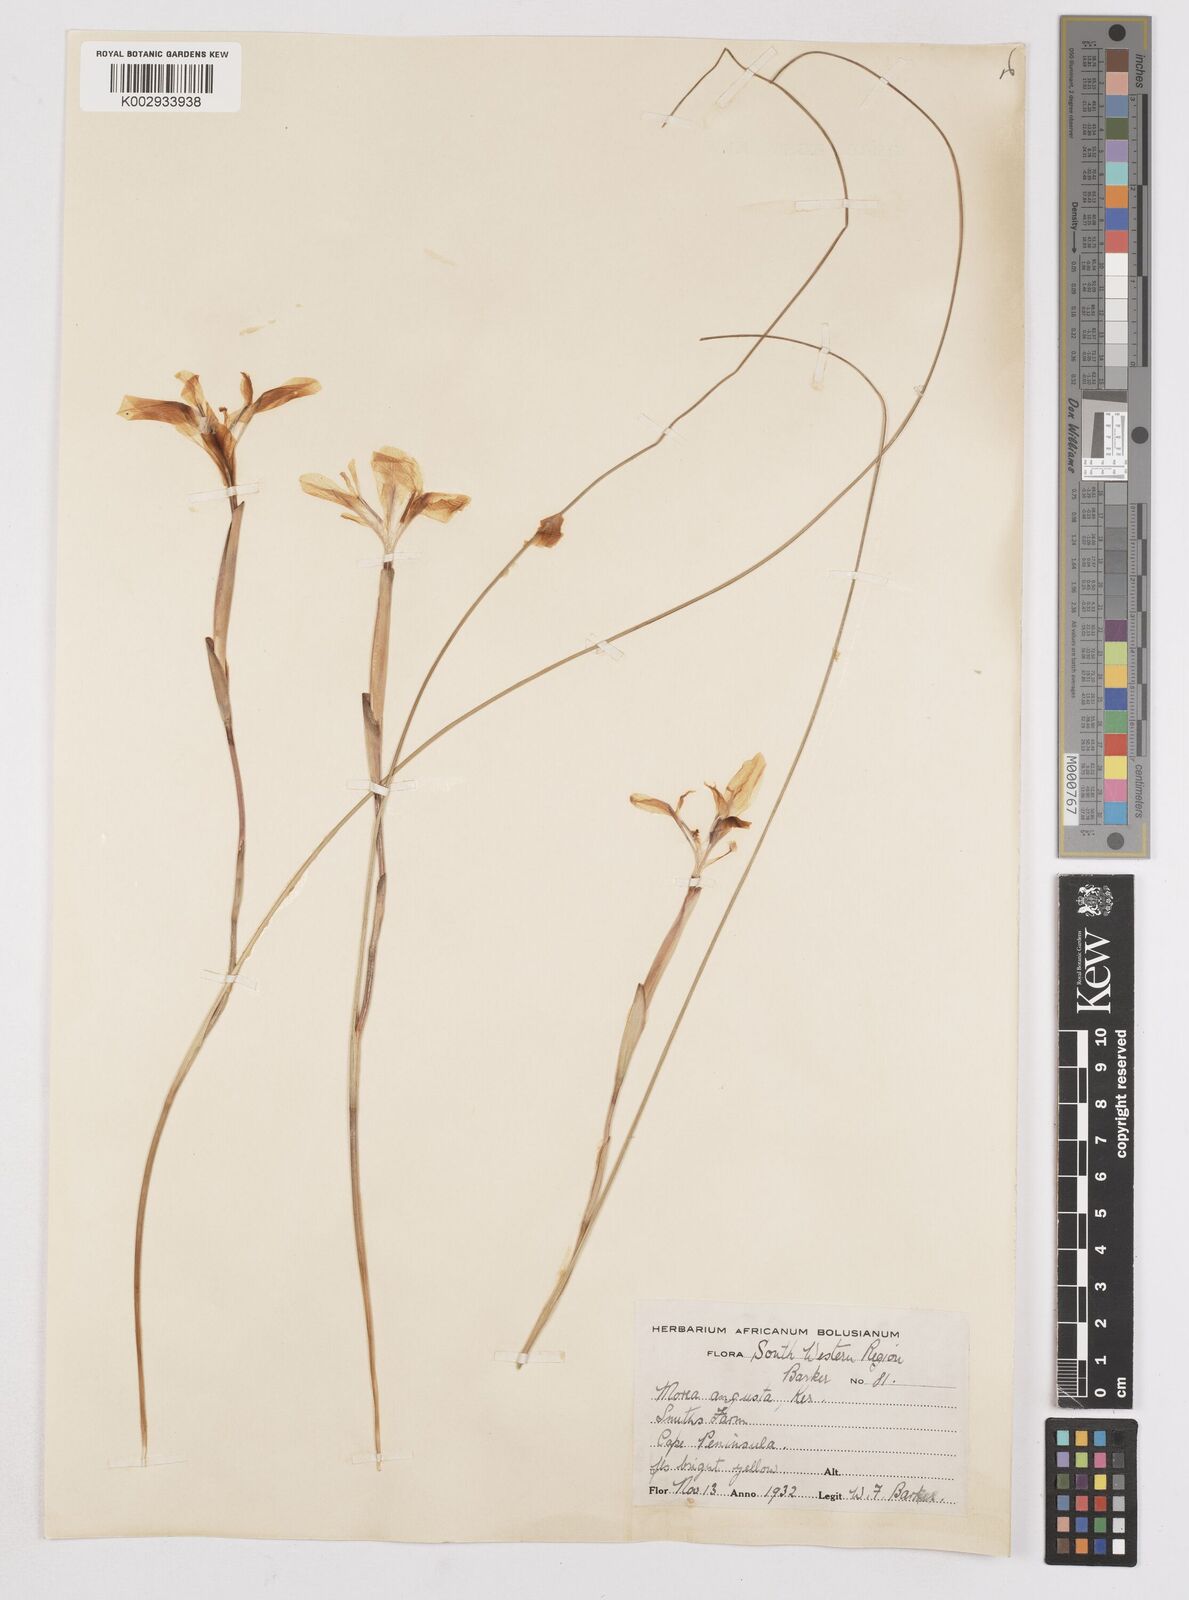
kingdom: Plantae
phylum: Tracheophyta
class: Liliopsida
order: Asparagales
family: Iridaceae
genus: Moraea
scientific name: Moraea angusta
